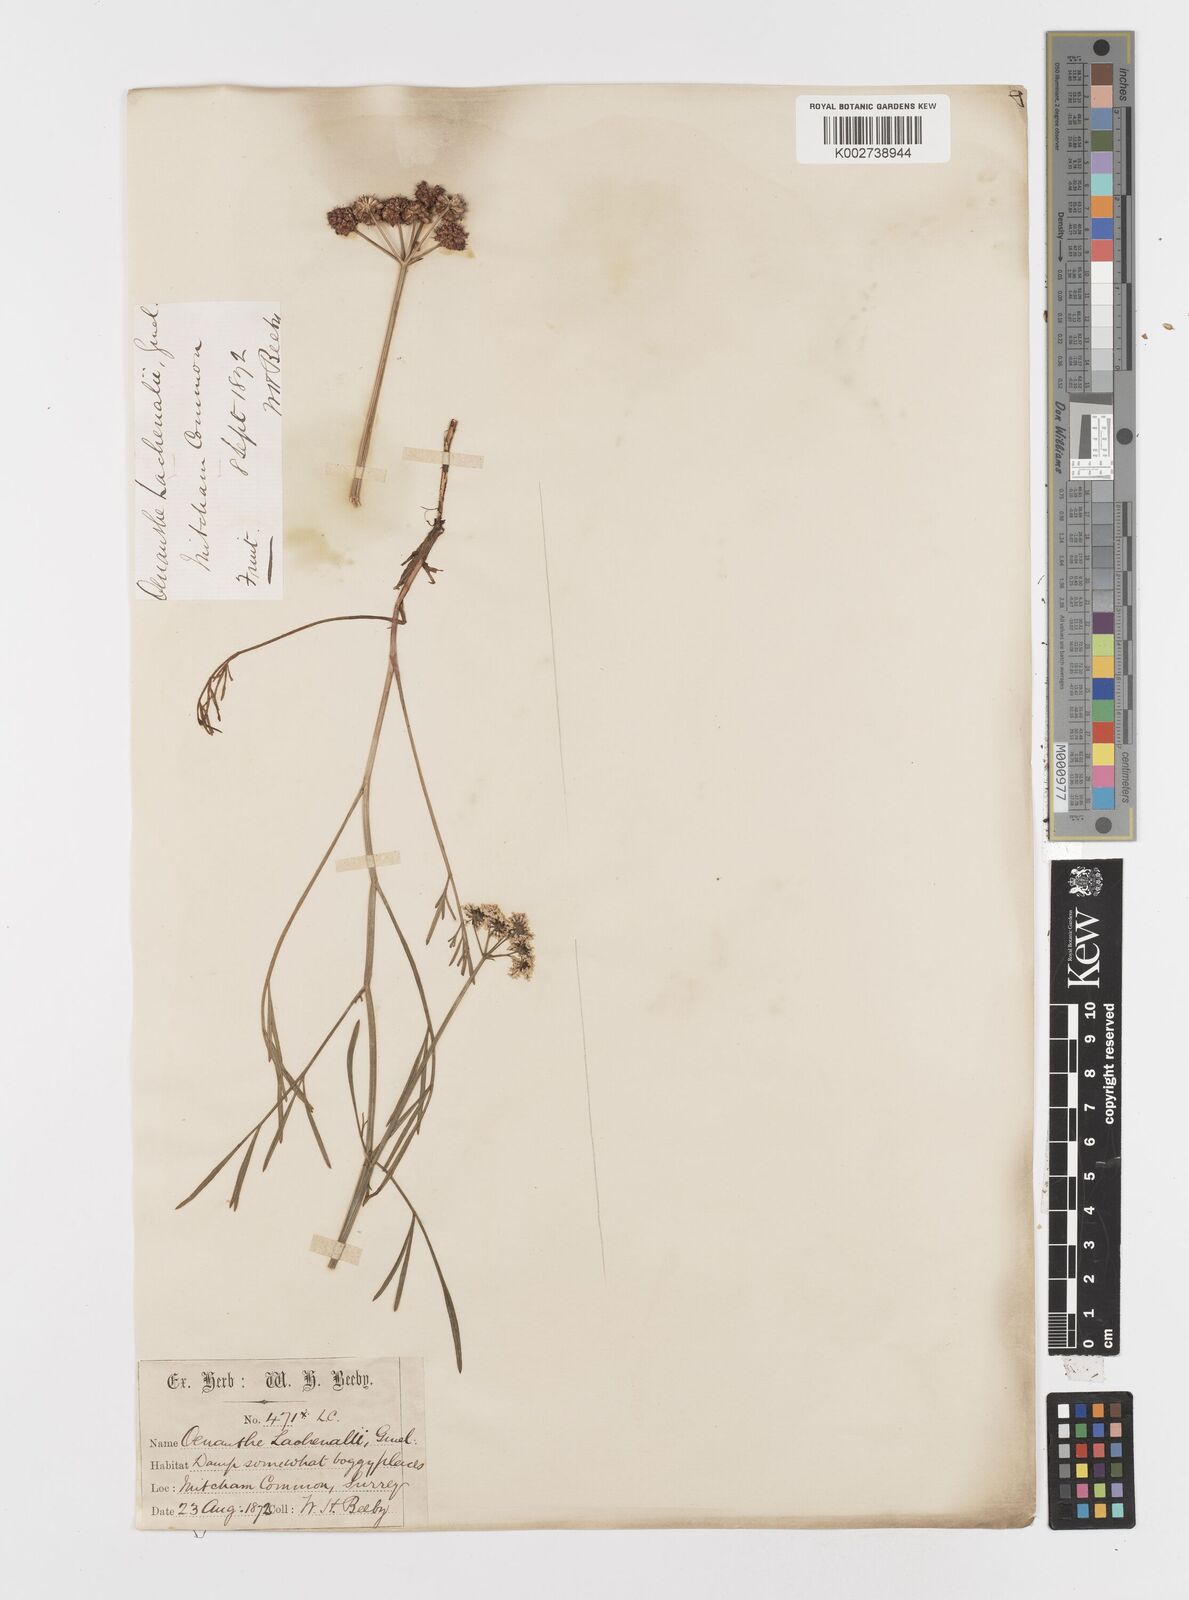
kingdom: Plantae
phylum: Tracheophyta
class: Magnoliopsida
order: Apiales
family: Apiaceae
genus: Oenanthe
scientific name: Oenanthe lachenalii
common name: Parsley water-dropwort
